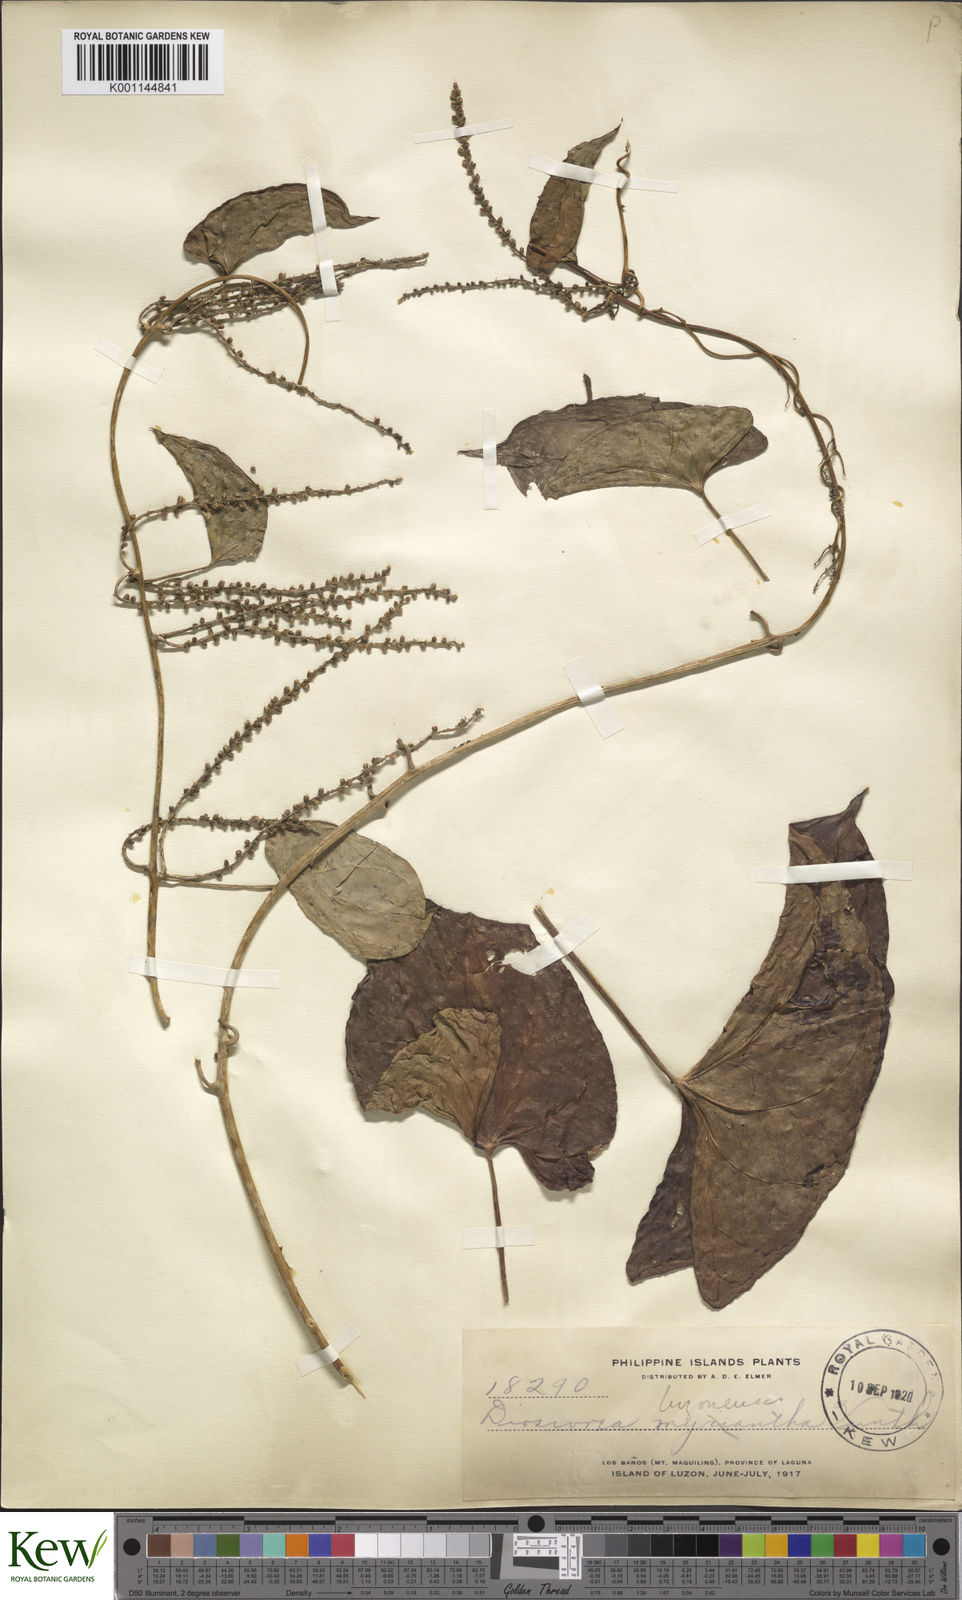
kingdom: Plantae
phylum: Tracheophyta
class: Liliopsida
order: Dioscoreales
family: Dioscoreaceae
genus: Dioscorea
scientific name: Dioscorea luzonensis
